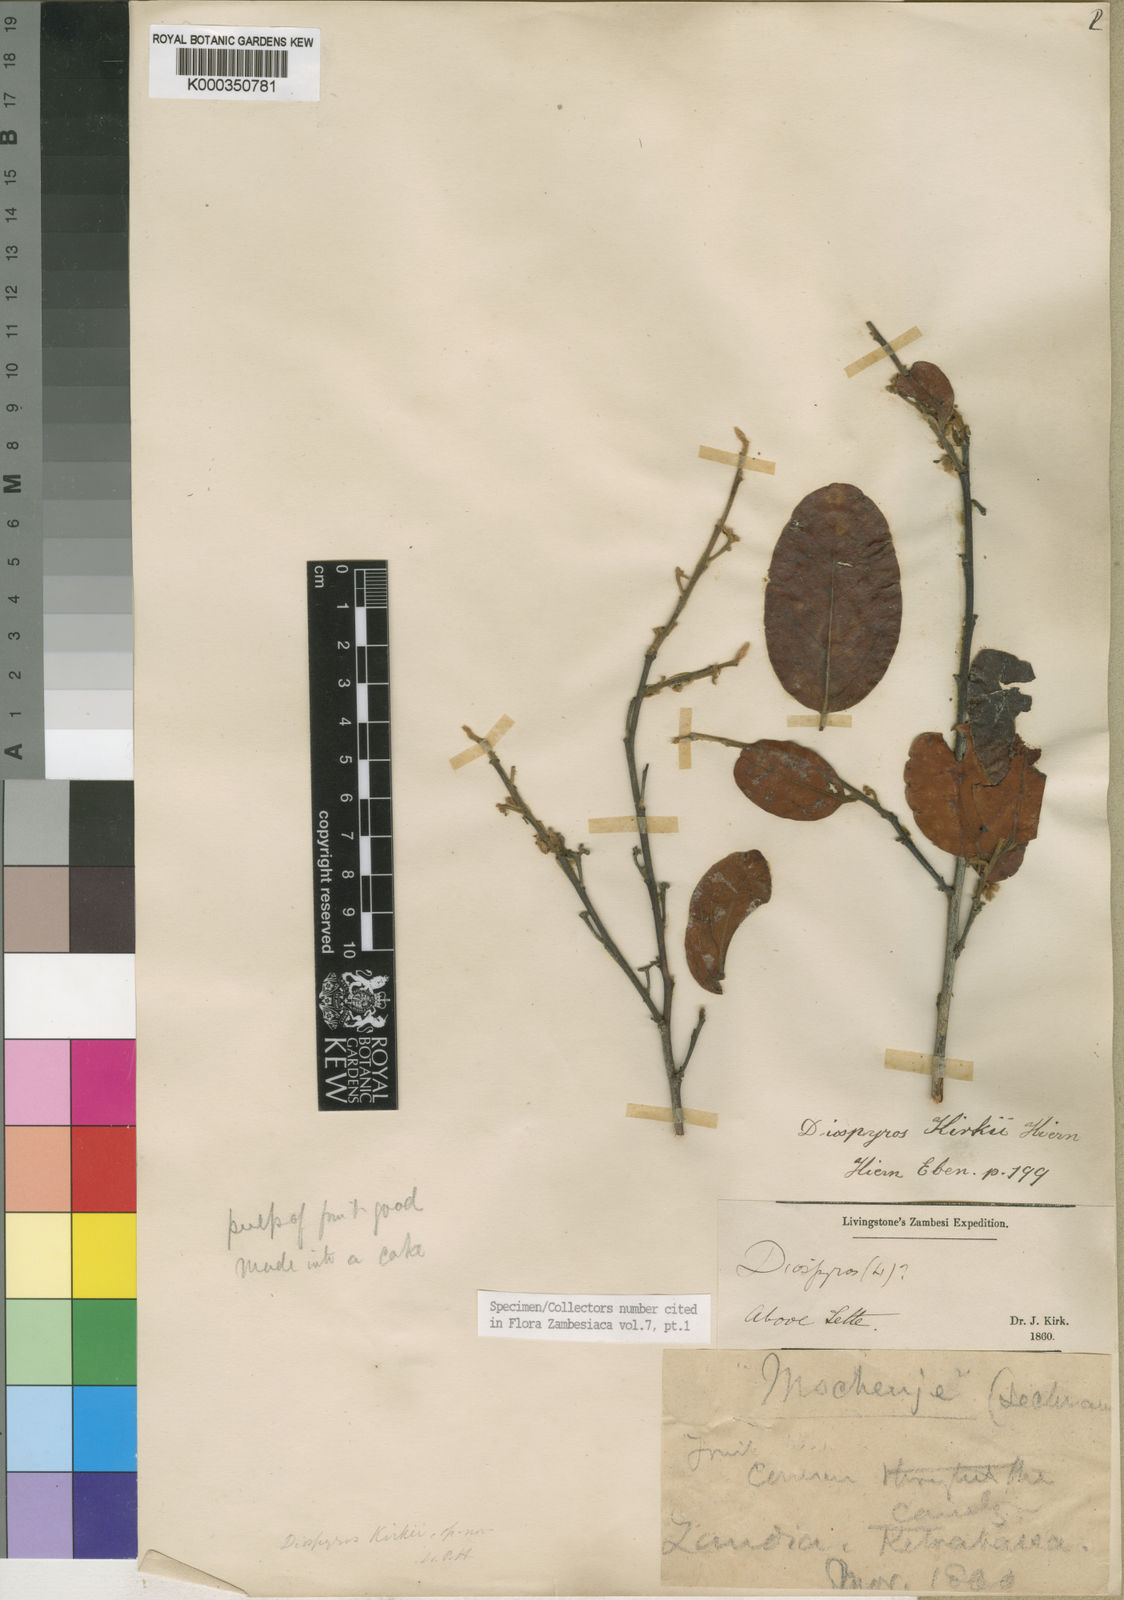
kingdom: Plantae
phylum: Tracheophyta
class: Magnoliopsida
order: Ericales
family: Ebenaceae
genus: Diospyros
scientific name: Diospyros kirkii
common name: Large-leaved jackal berry
